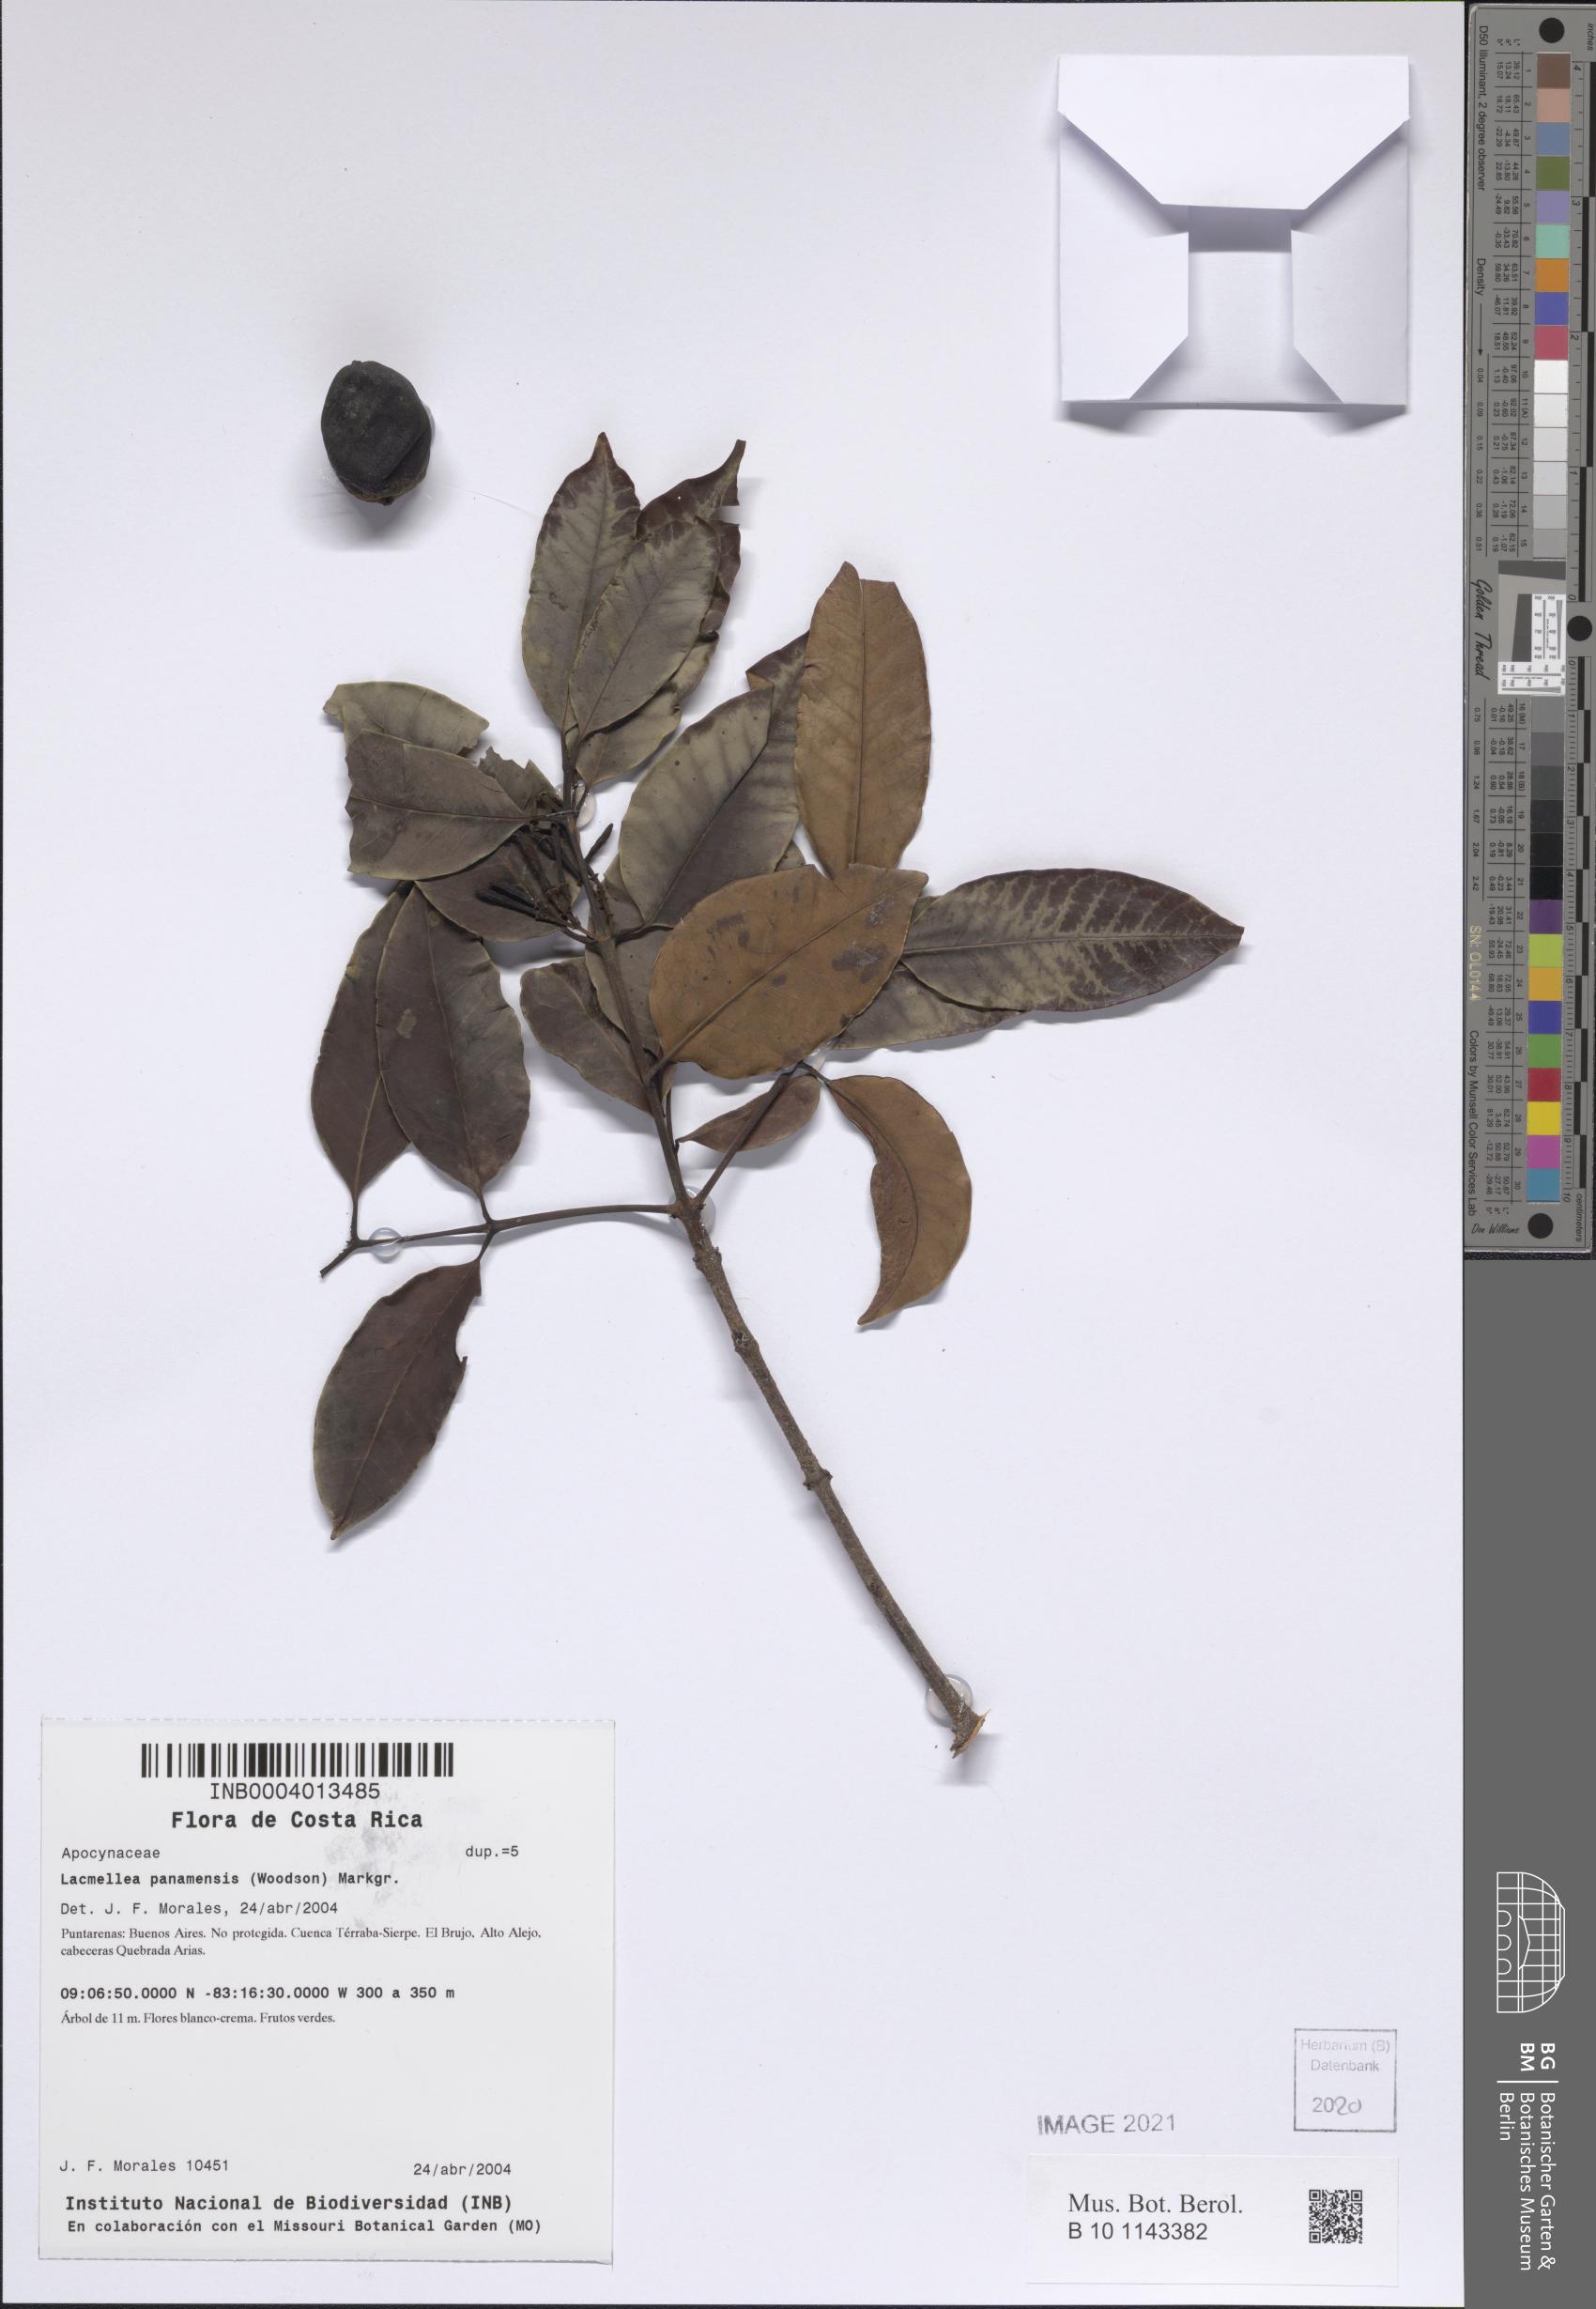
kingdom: Plantae
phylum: Tracheophyta
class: Magnoliopsida
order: Gentianales
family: Apocynaceae
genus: Lacmellea
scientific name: Lacmellea panamensis
